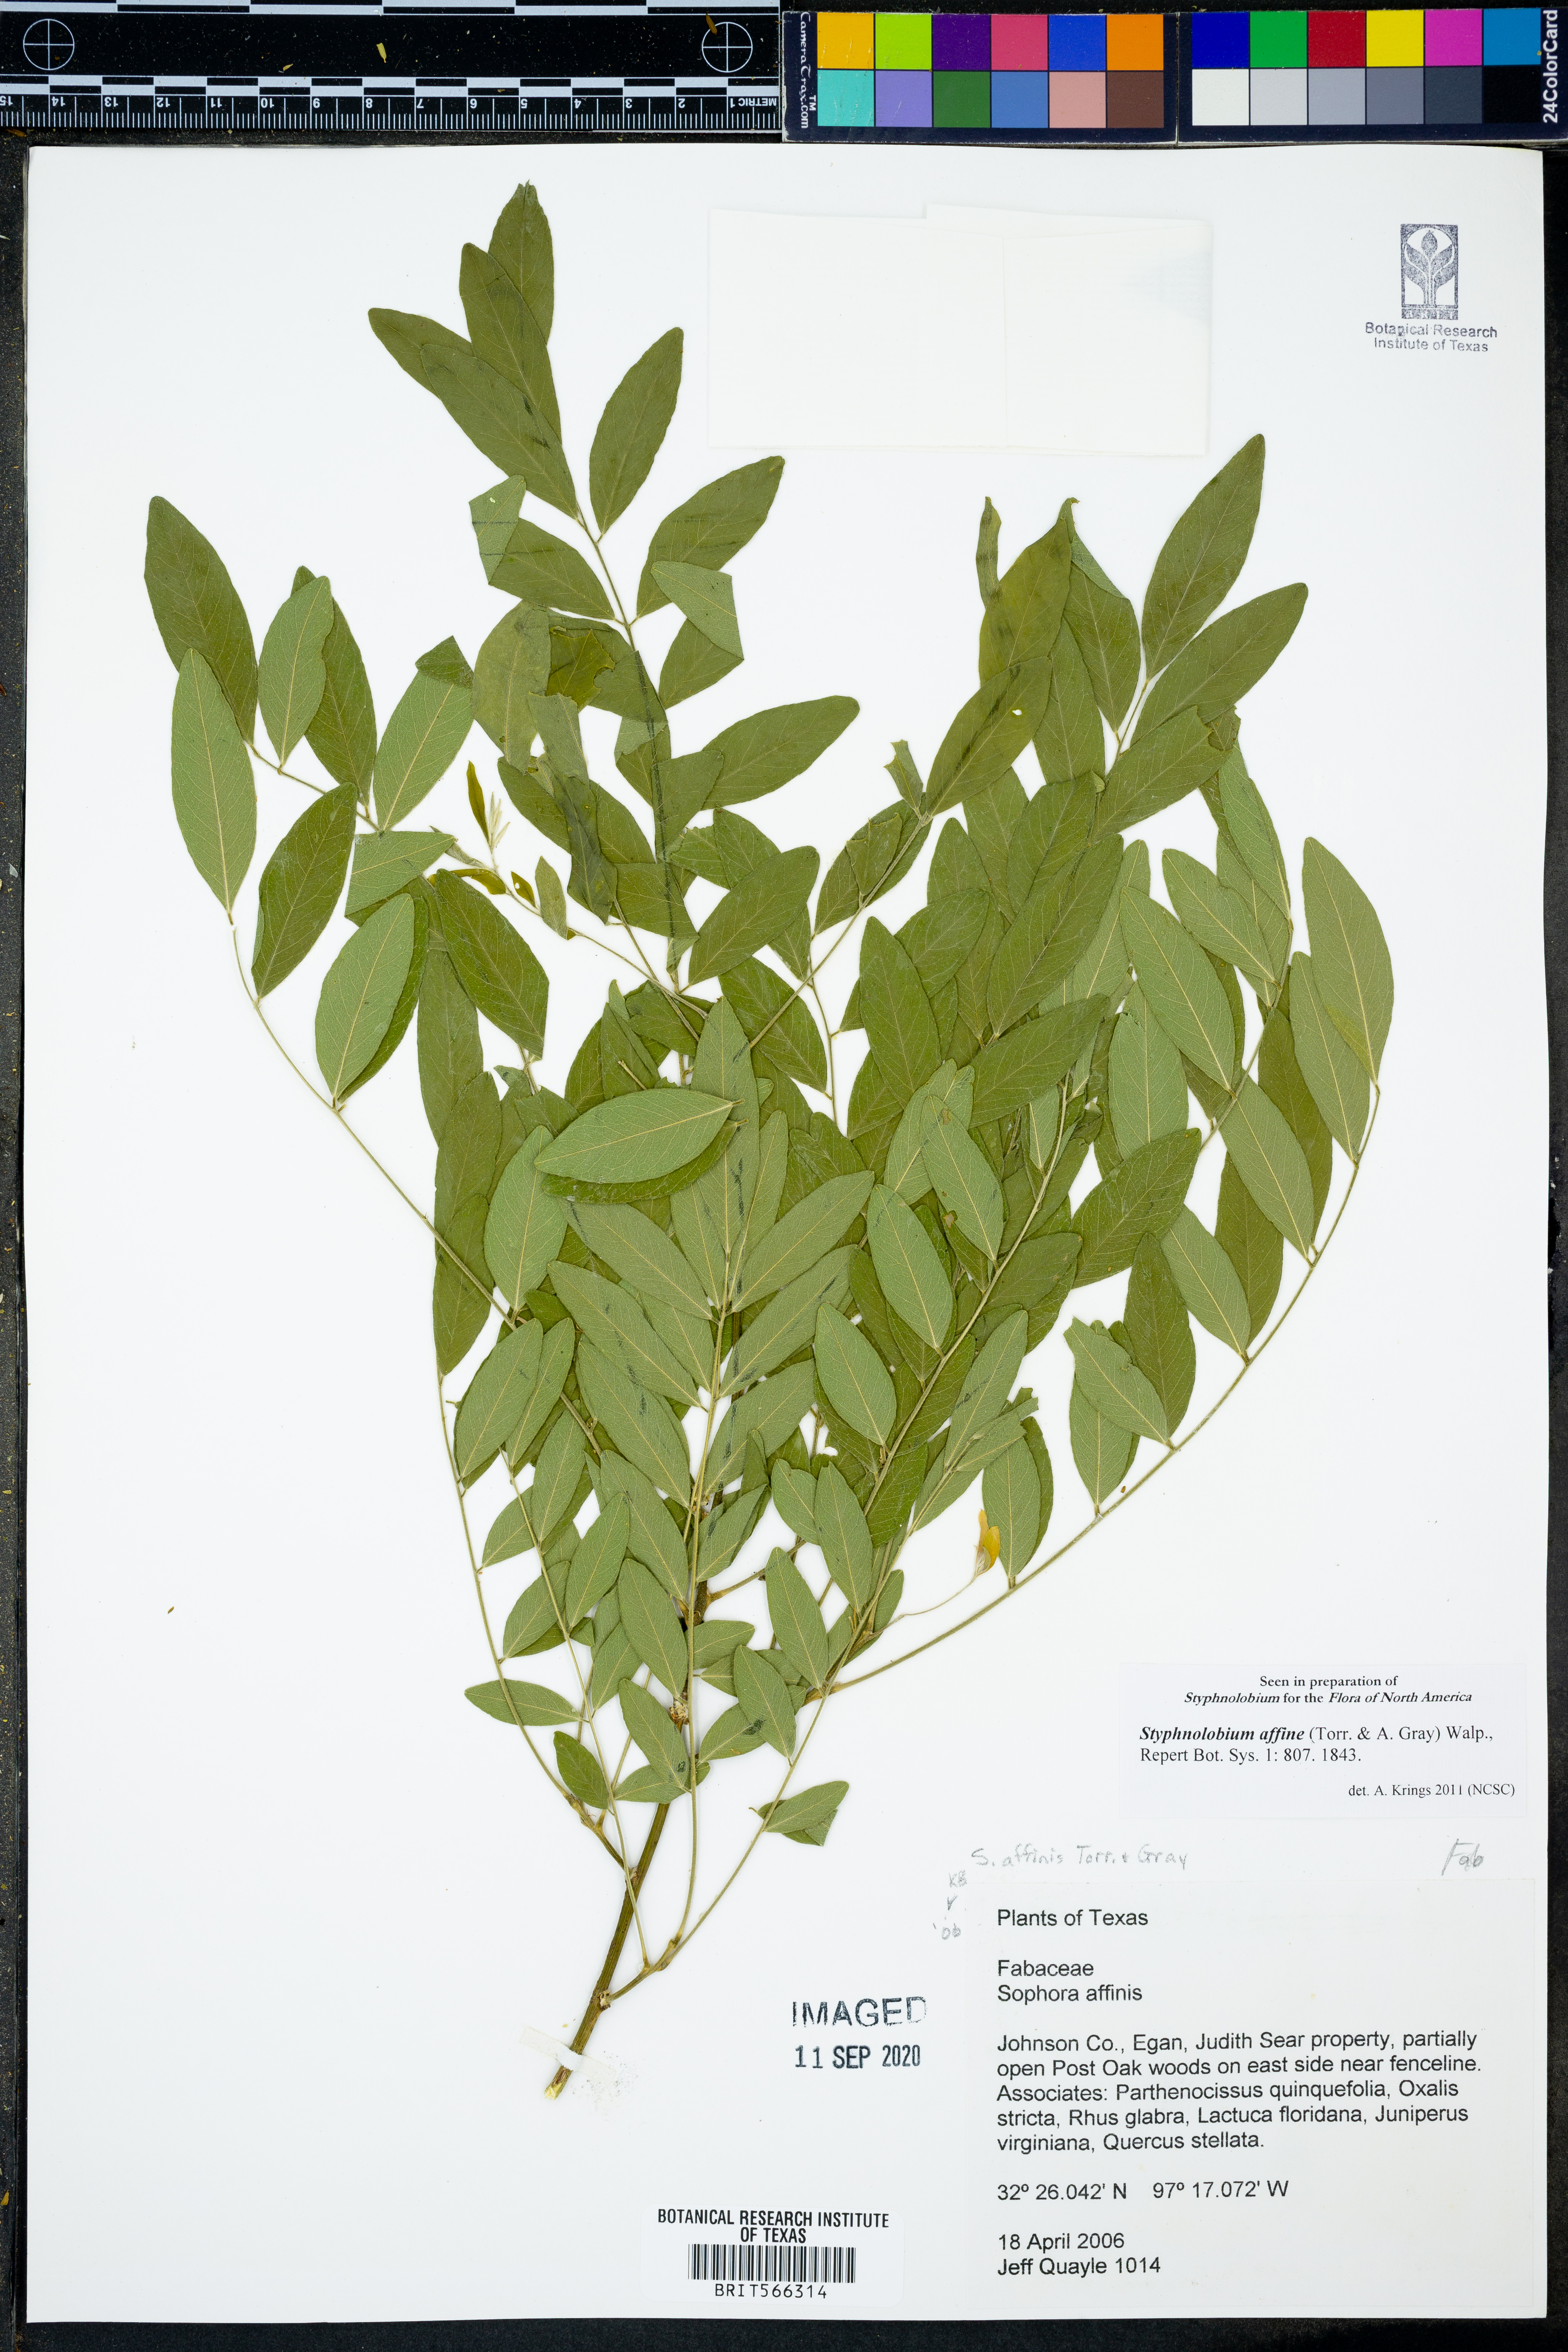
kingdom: Plantae
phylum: Tracheophyta
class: Magnoliopsida
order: Fabales
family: Fabaceae
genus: Styphnolobium
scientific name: Styphnolobium affine
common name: Texas sophora
